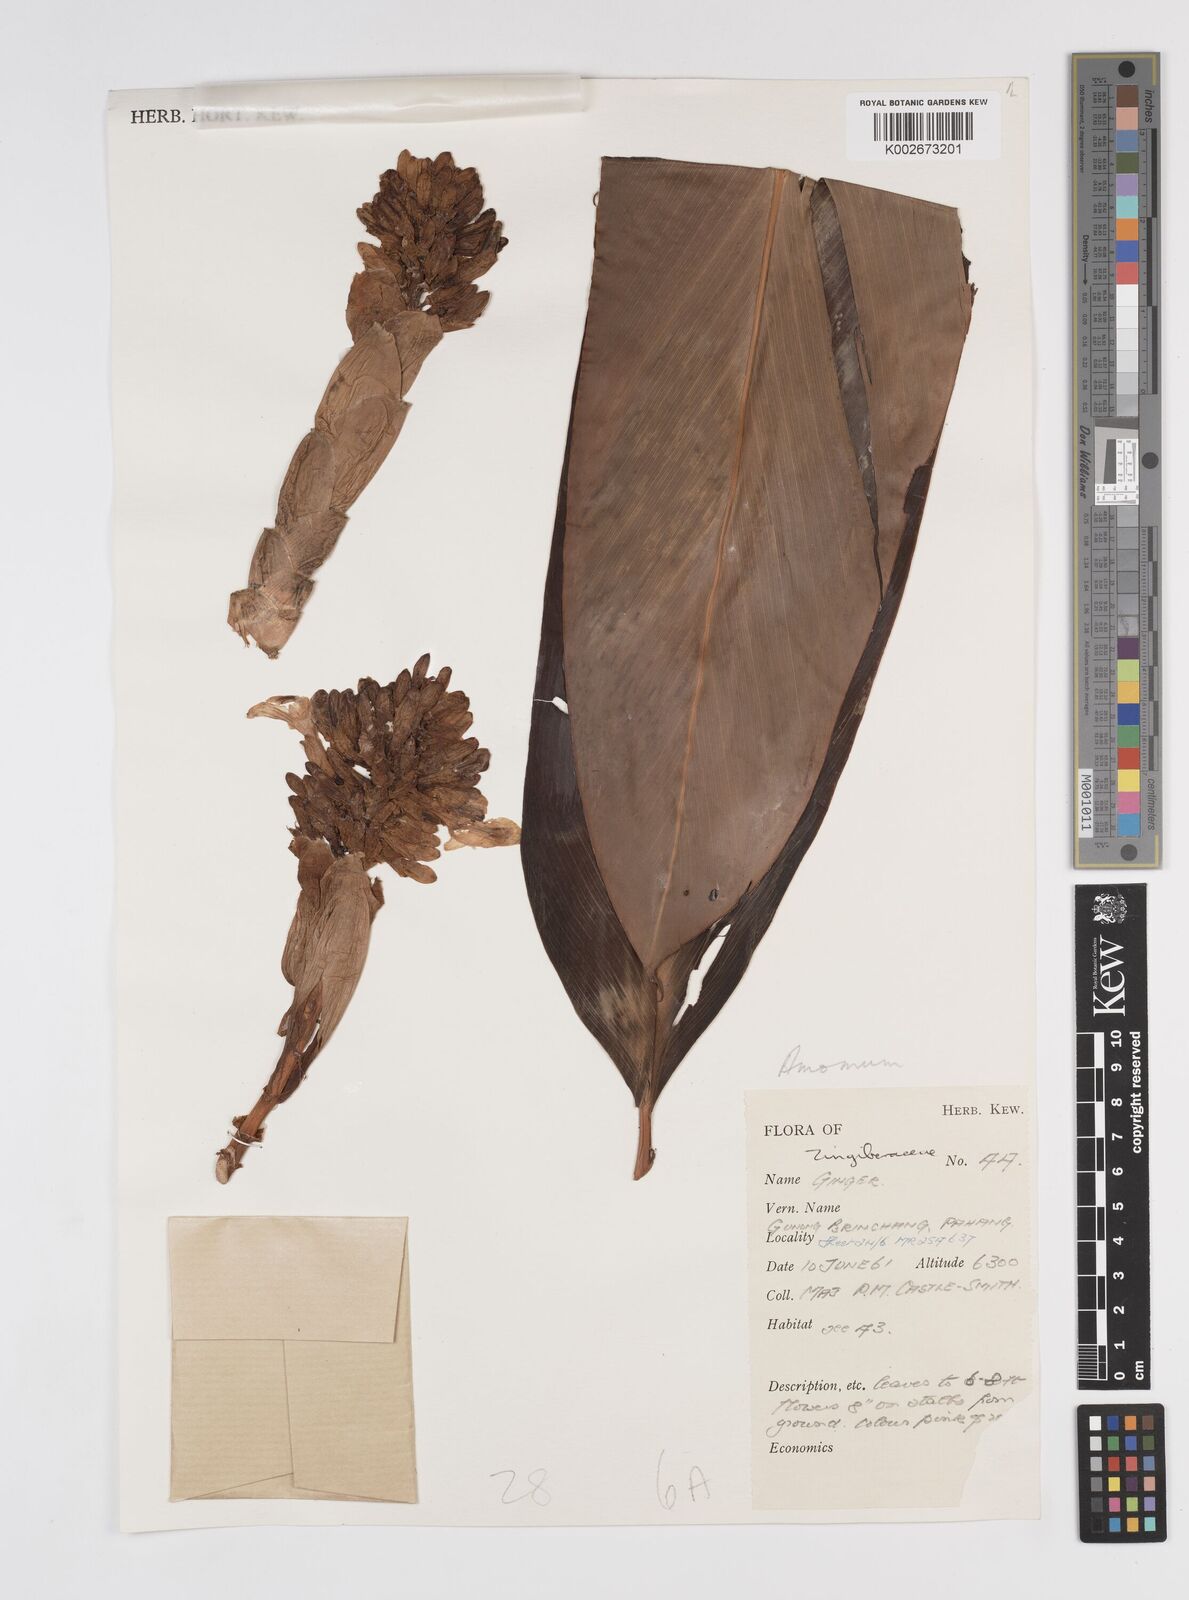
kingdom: Plantae
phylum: Tracheophyta
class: Liliopsida
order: Zingiberales
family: Zingiberaceae
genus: Amomum
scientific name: Amomum
